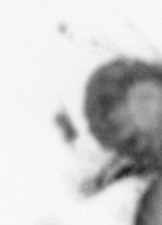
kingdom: Animalia
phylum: Annelida
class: Polychaeta
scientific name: Polychaeta
